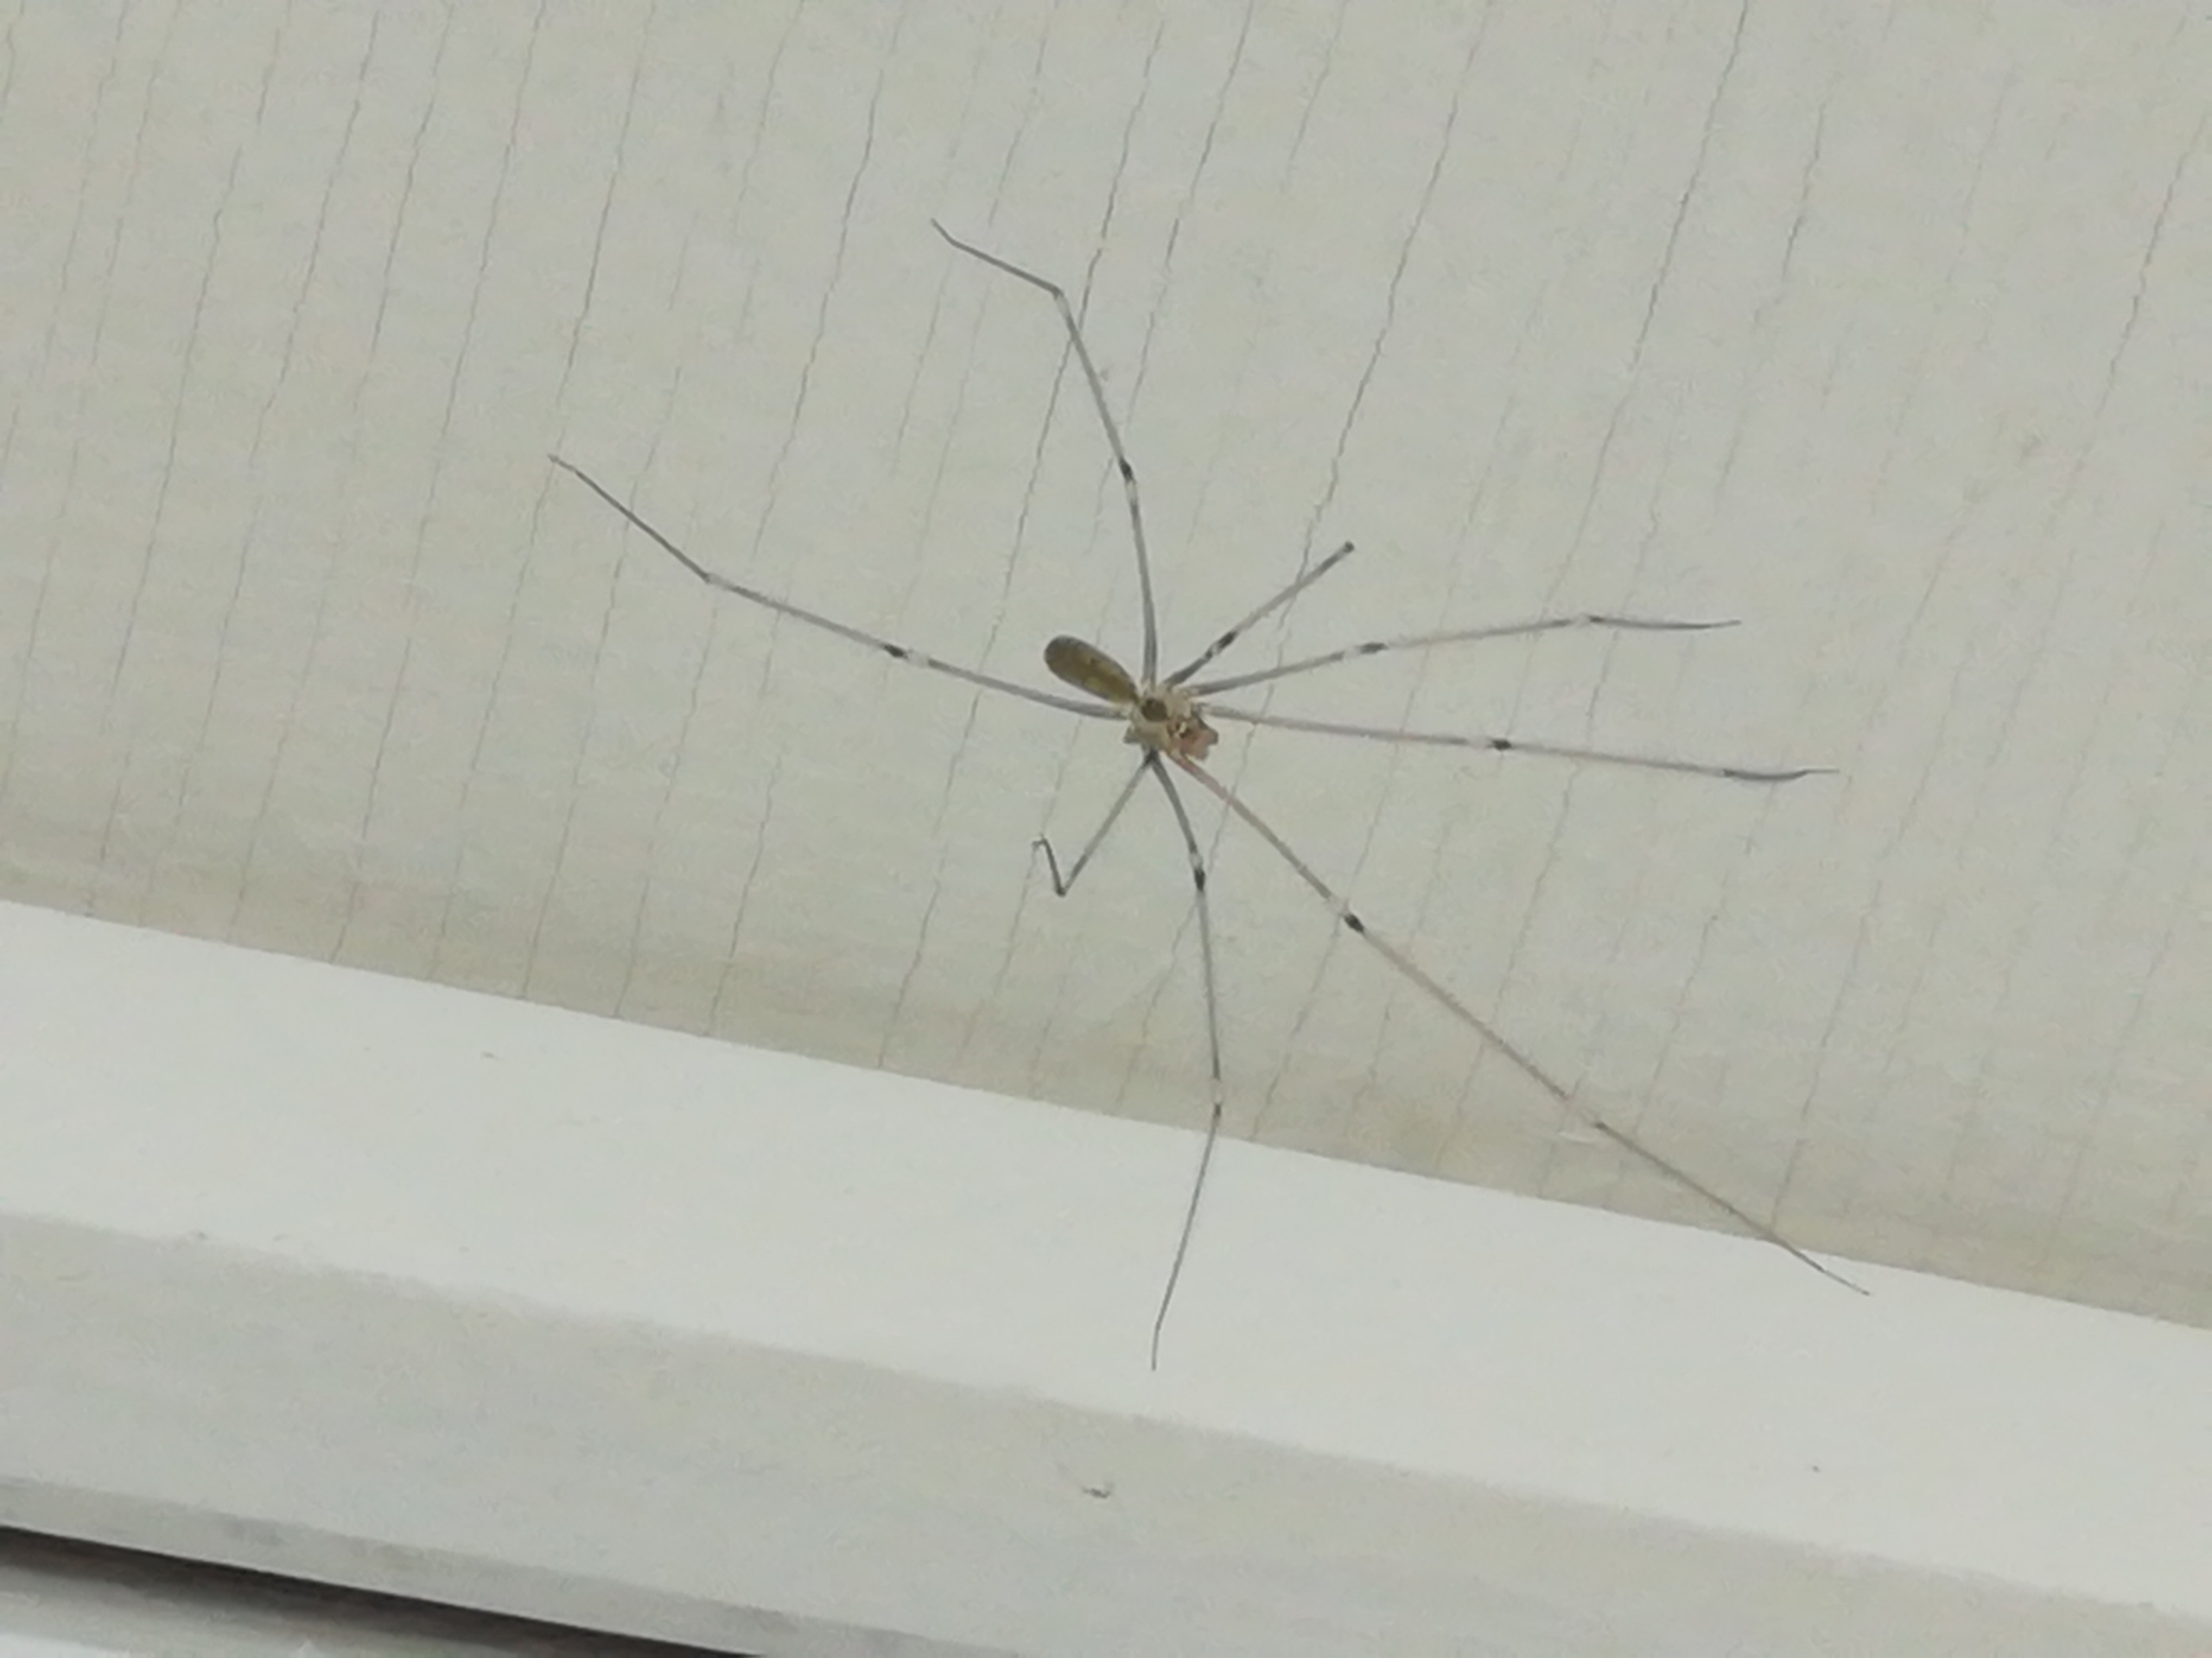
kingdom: Animalia
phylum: Arthropoda
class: Arachnida
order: Araneae
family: Pholcidae
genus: Pholcus
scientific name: Pholcus phalangioides
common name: Mejeredderkop
